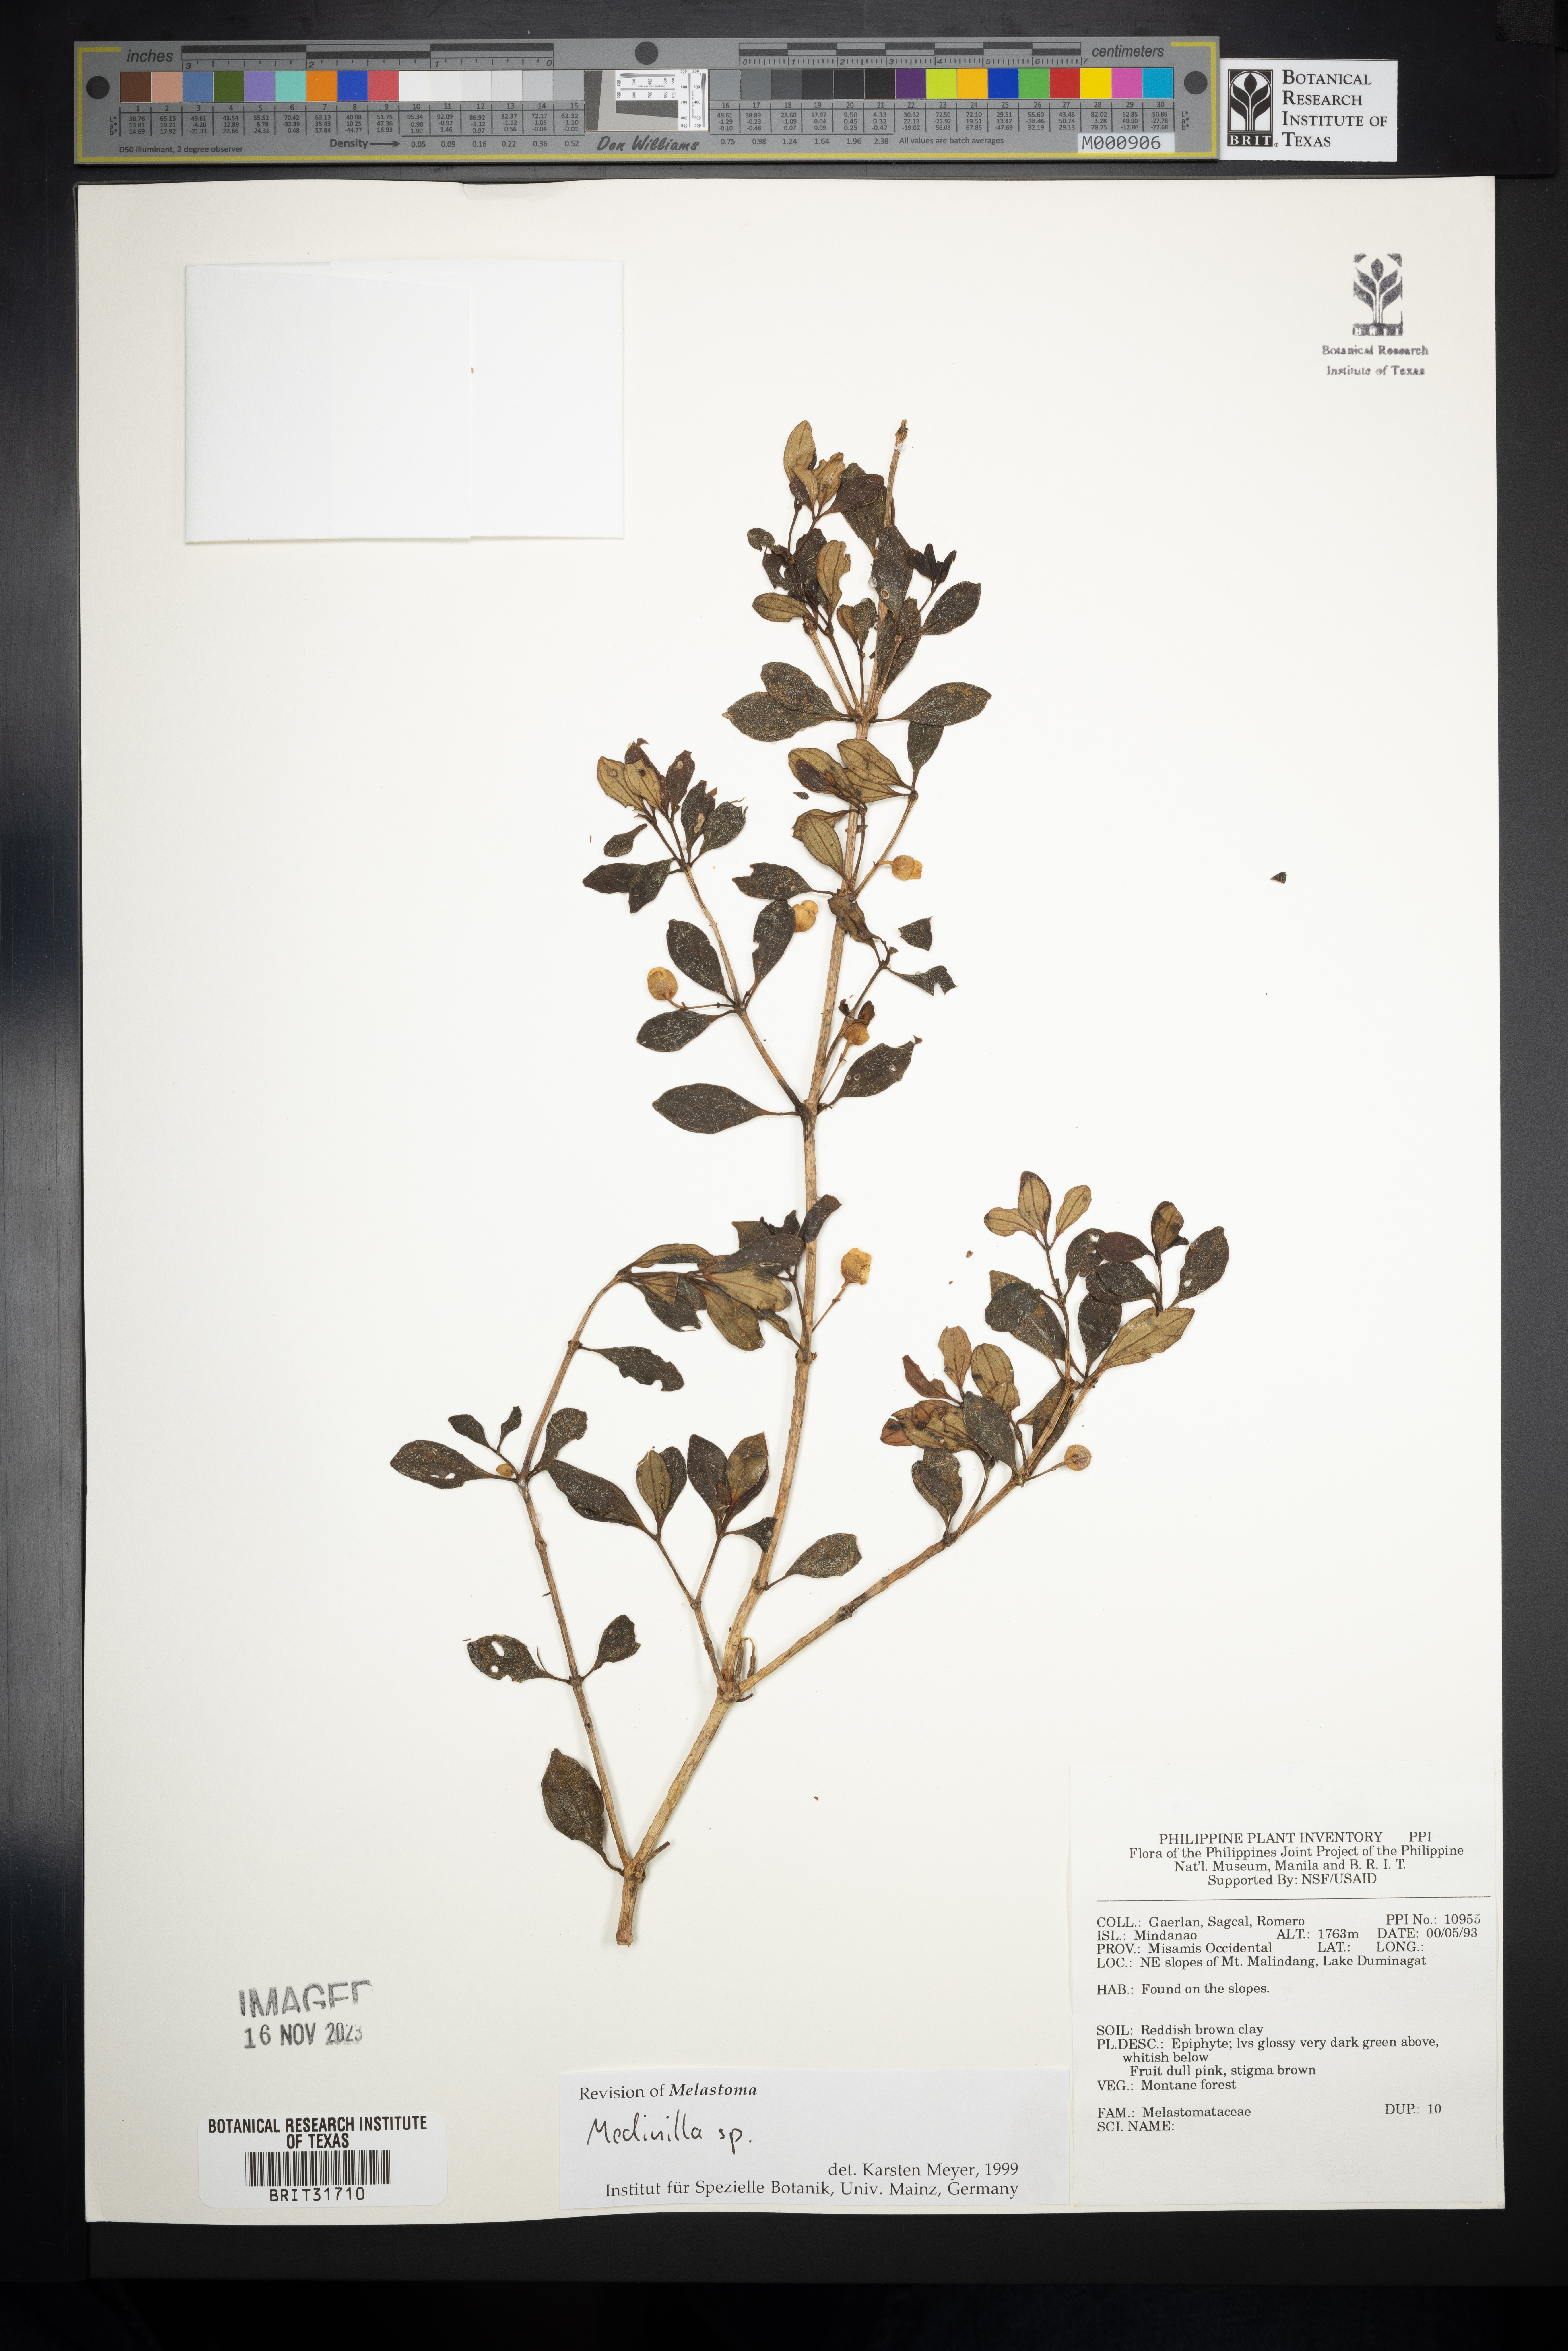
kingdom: Plantae
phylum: Tracheophyta
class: Magnoliopsida
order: Myrtales
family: Melastomataceae
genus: Medinilla
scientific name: Medinilla
